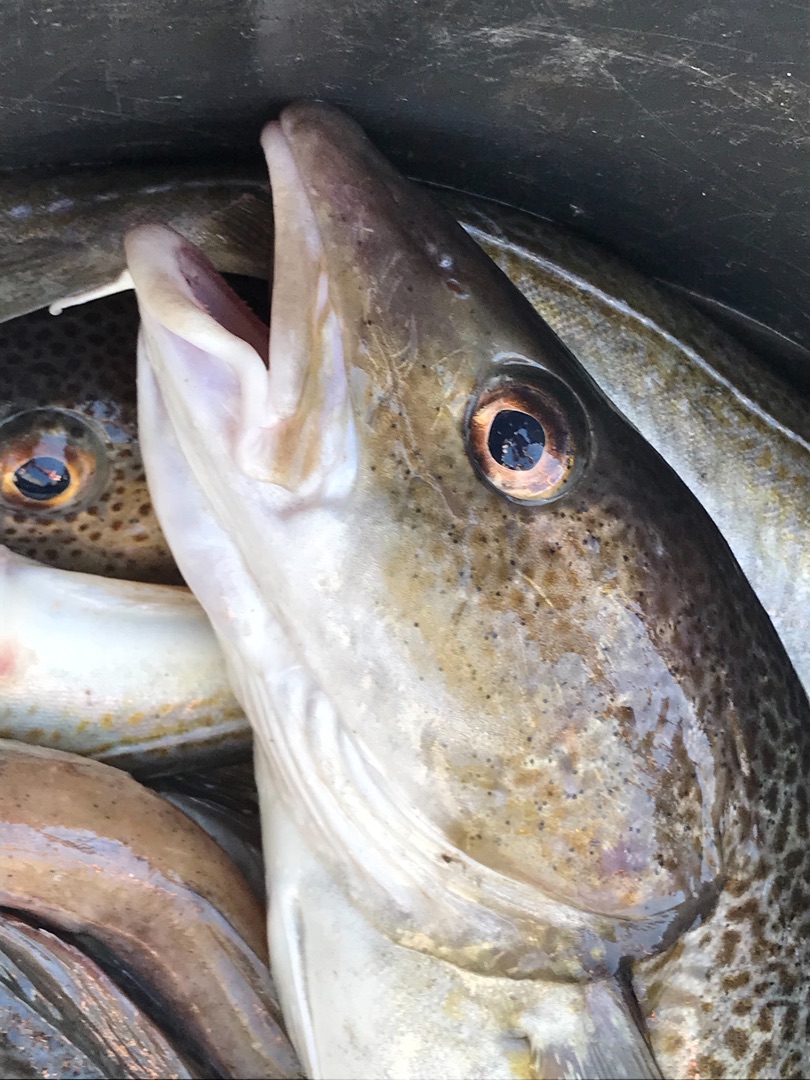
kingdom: Animalia
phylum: Chordata
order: Gadiformes
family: Gadidae
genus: Gadus
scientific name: Gadus morhua
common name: Torsk
